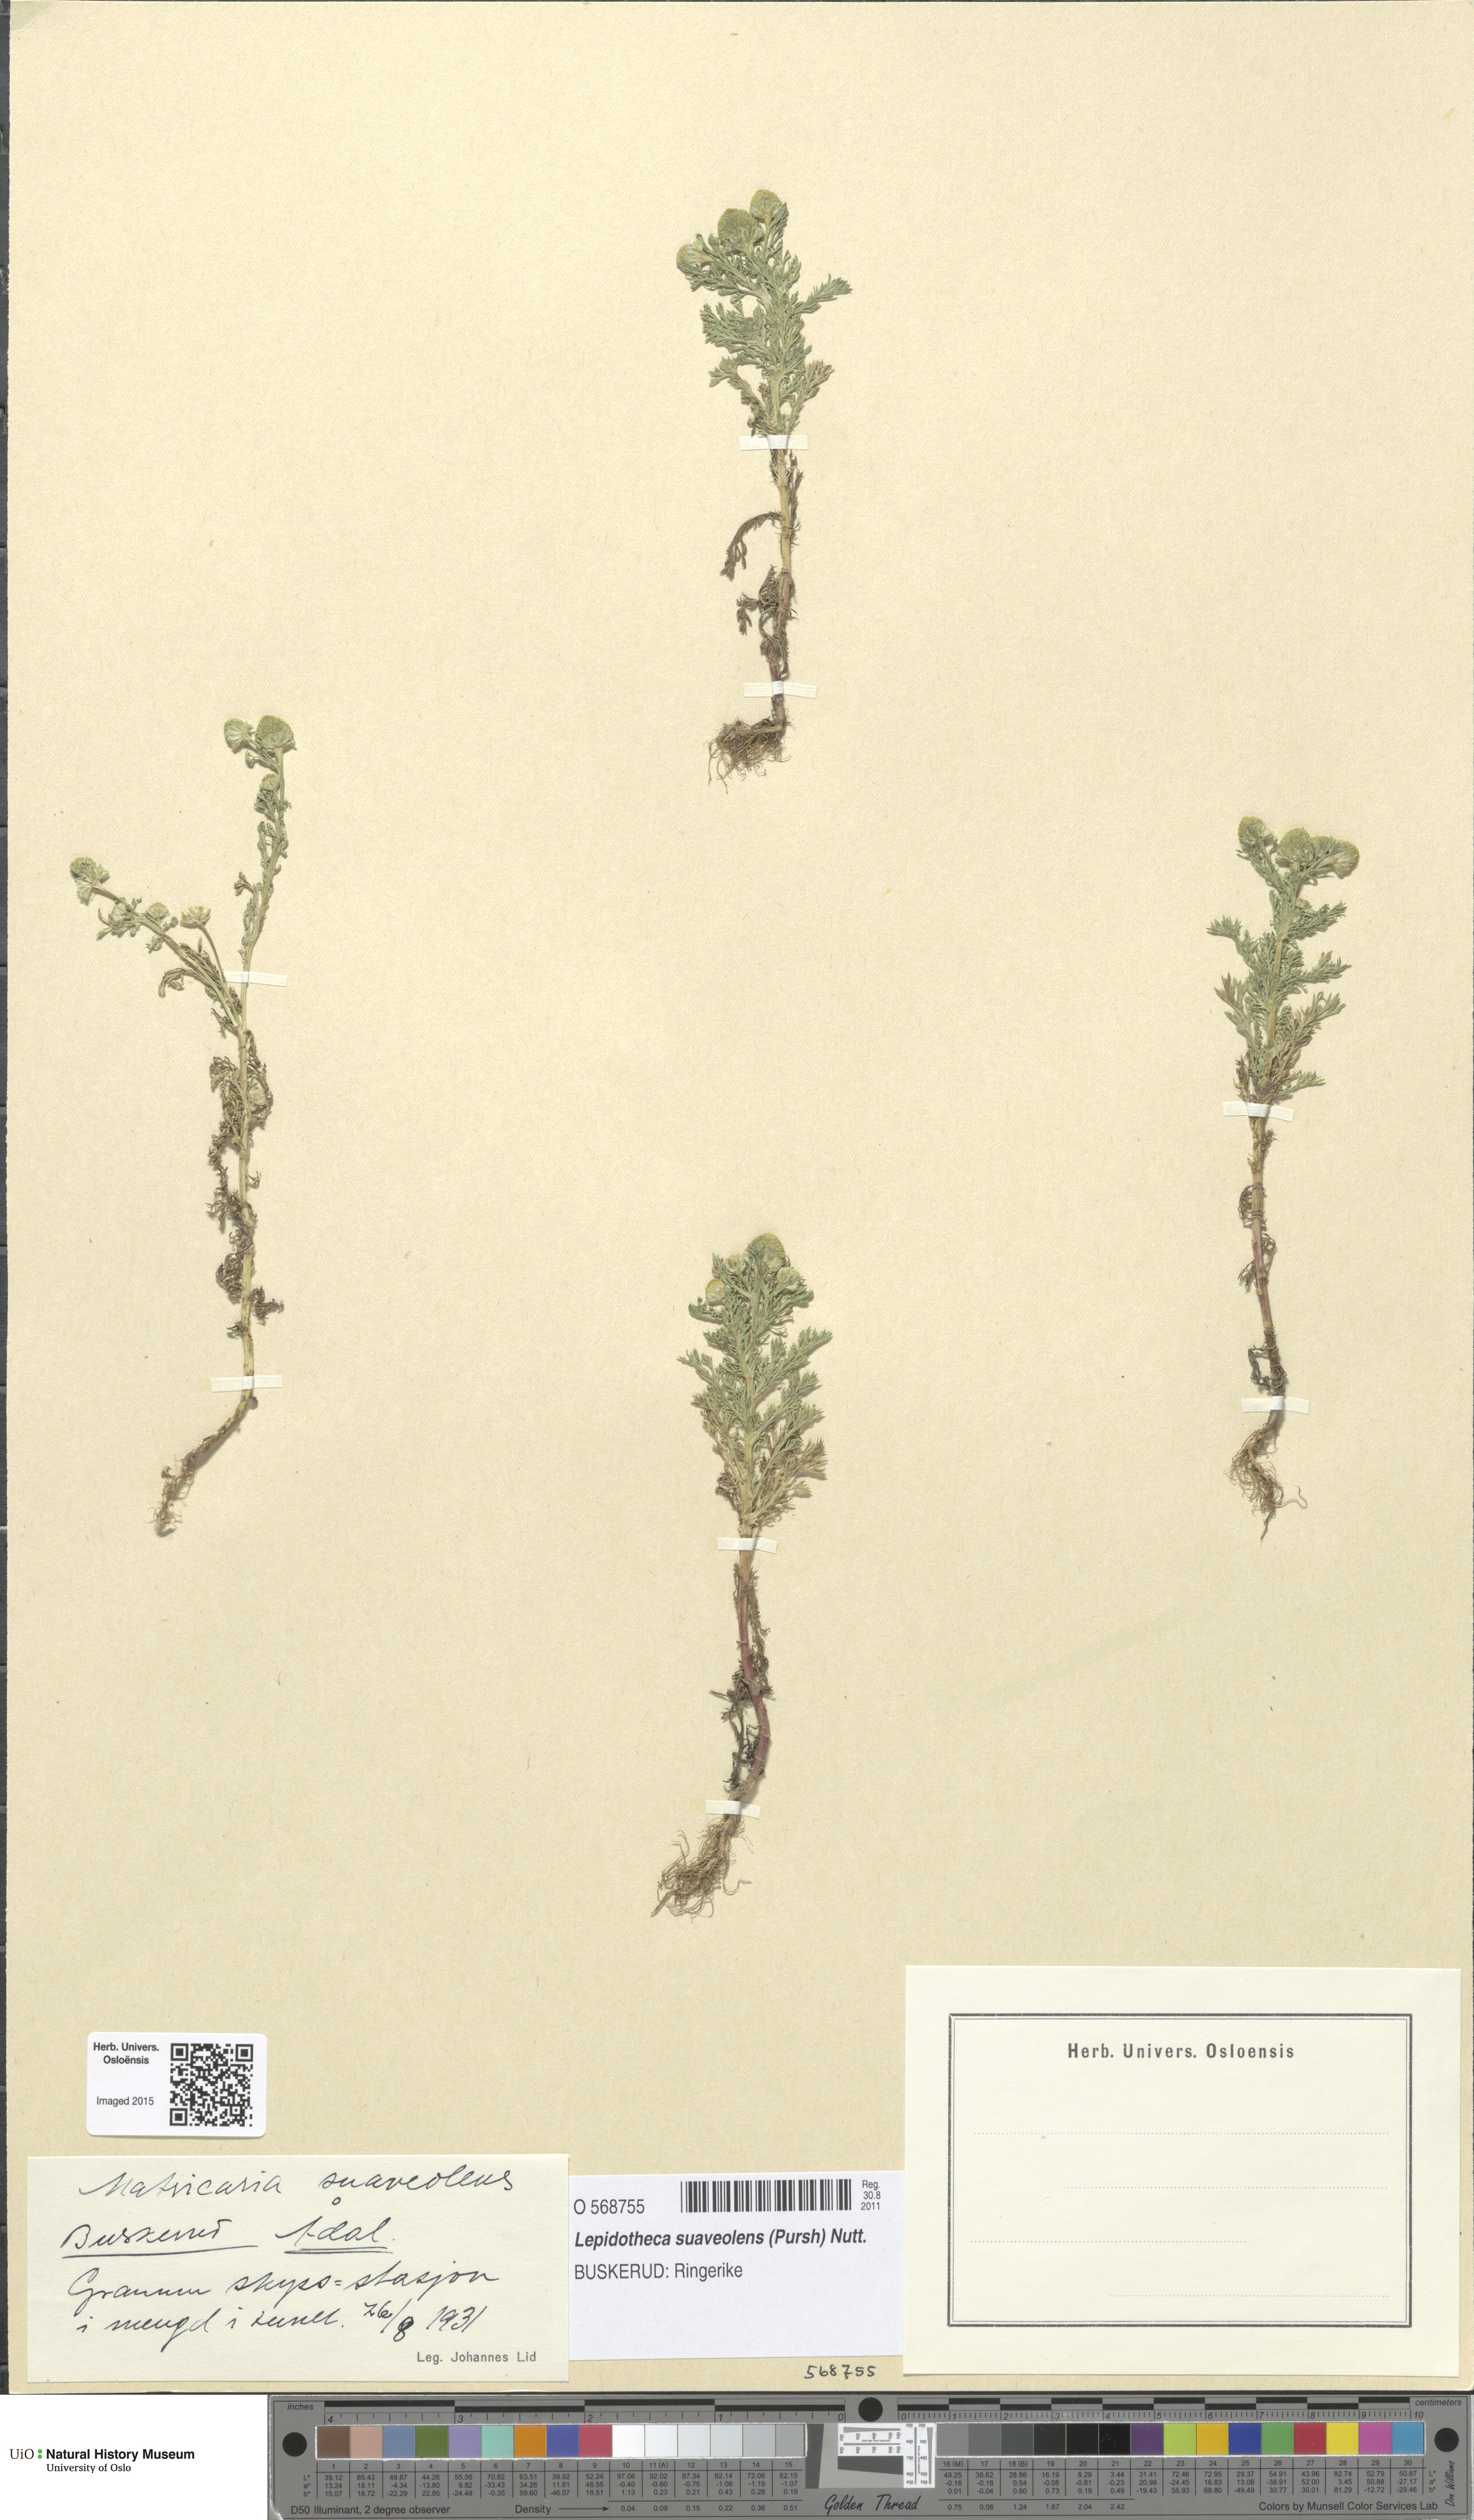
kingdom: Plantae
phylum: Tracheophyta
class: Magnoliopsida
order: Asterales
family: Asteraceae
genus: Matricaria
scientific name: Matricaria discoidea
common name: Disc mayweed
